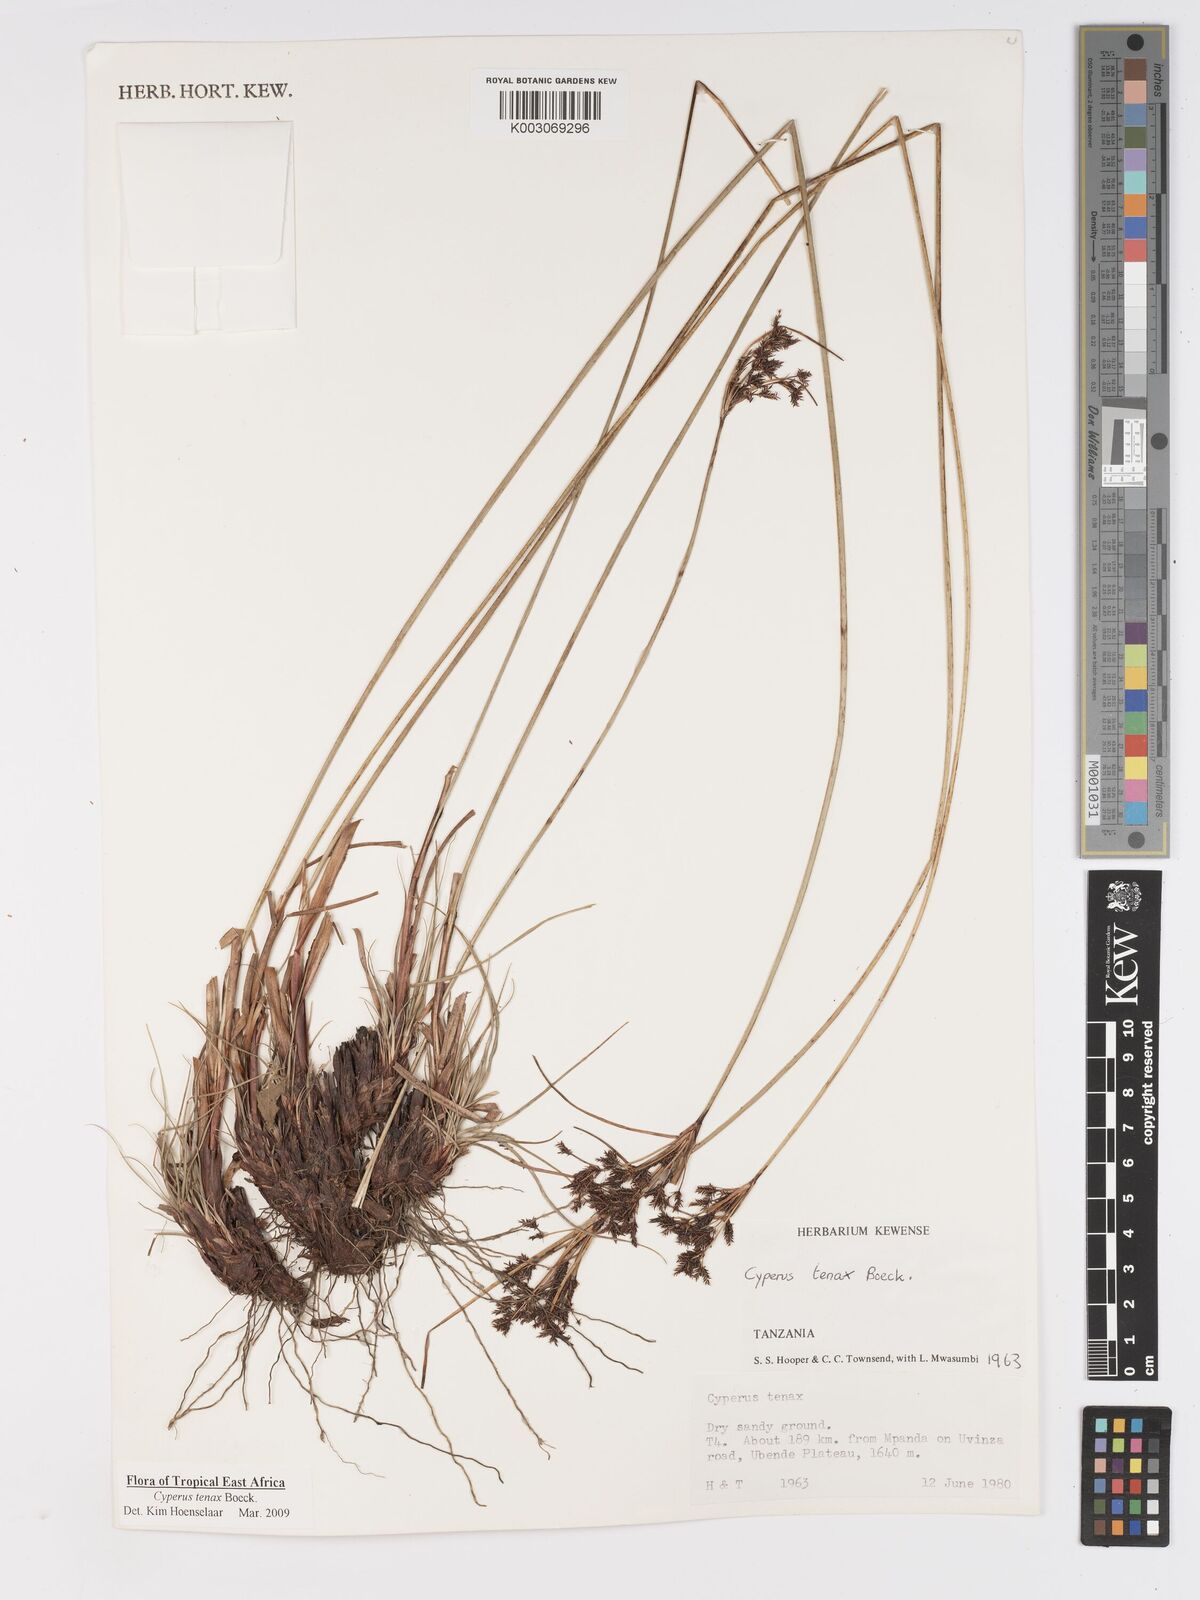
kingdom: Plantae
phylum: Tracheophyta
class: Liliopsida
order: Poales
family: Cyperaceae
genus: Cyperus
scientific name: Cyperus tenax
